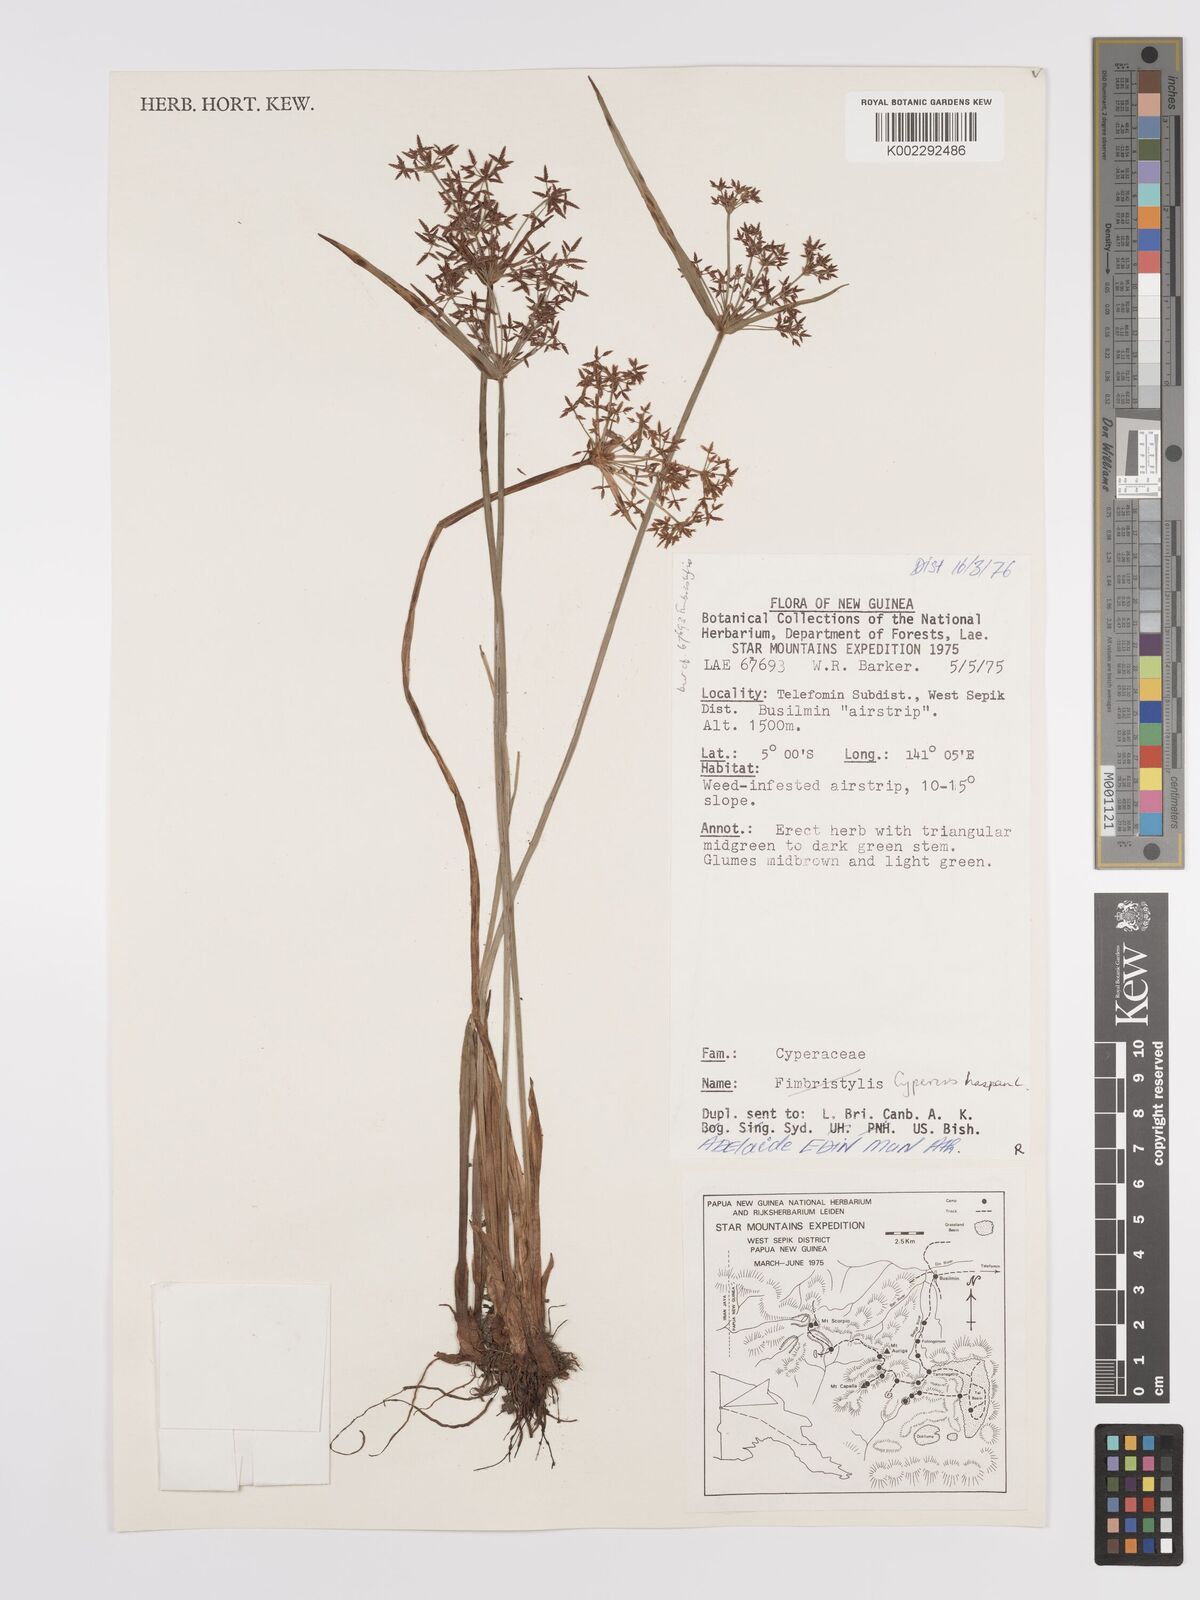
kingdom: Plantae
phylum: Tracheophyta
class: Liliopsida
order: Poales
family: Cyperaceae
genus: Cyperus
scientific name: Cyperus haspan
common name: Haspan flatsedge
